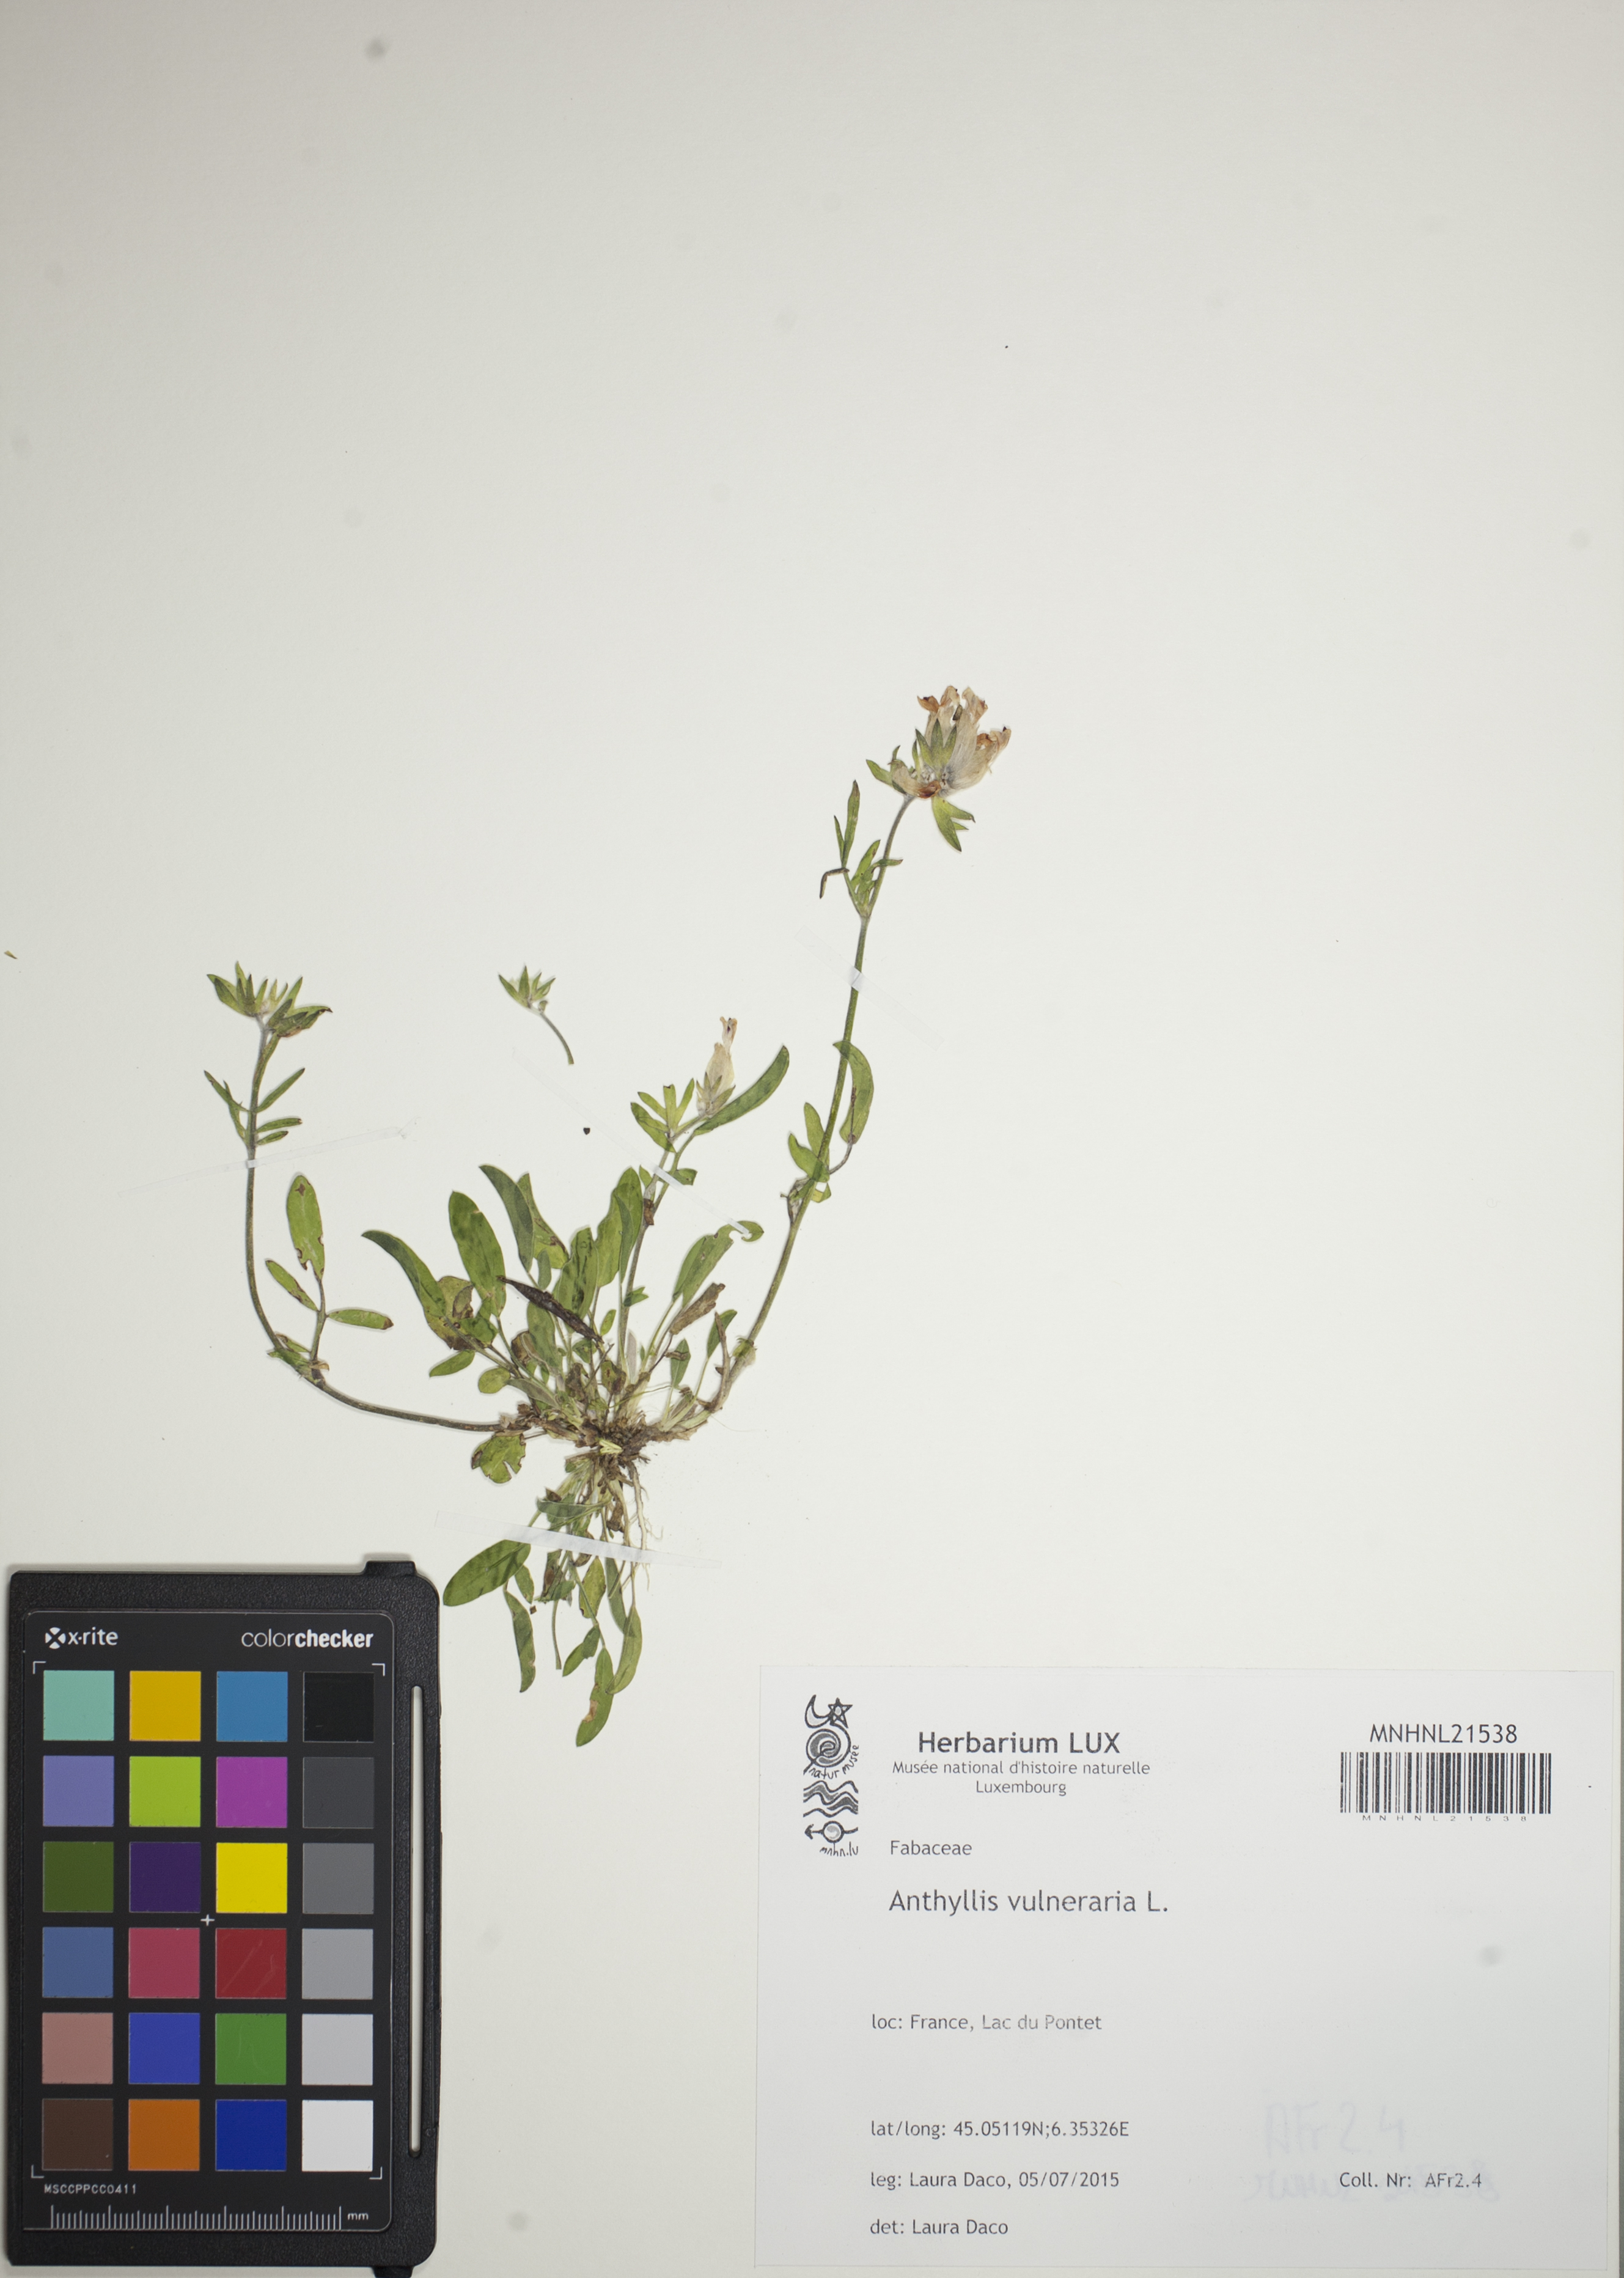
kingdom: Plantae
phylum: Tracheophyta
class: Magnoliopsida
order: Fabales
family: Fabaceae
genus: Anthyllis
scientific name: Anthyllis vulneraria
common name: Kidney vetch
